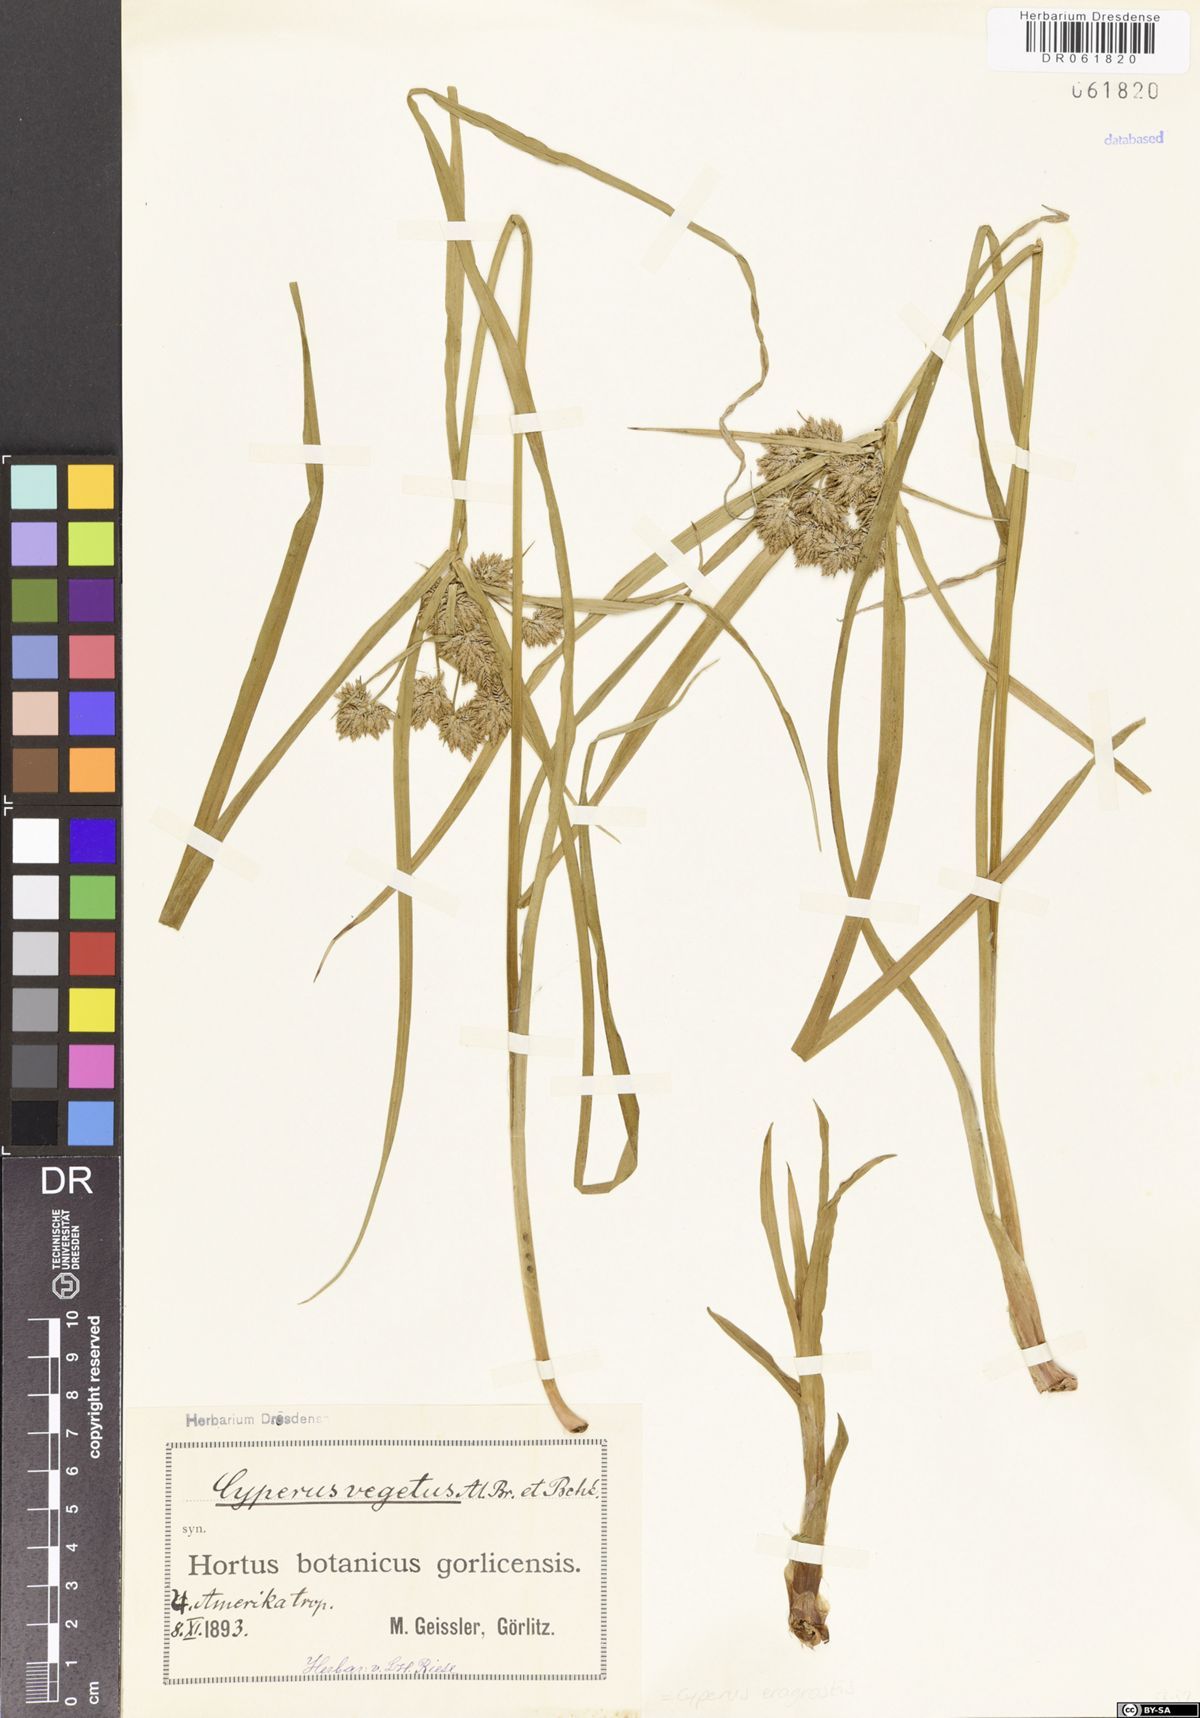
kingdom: Plantae
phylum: Tracheophyta
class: Liliopsida
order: Poales
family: Cyperaceae
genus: Cyperus
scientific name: Cyperus eragrostis
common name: Tall flatsedge
